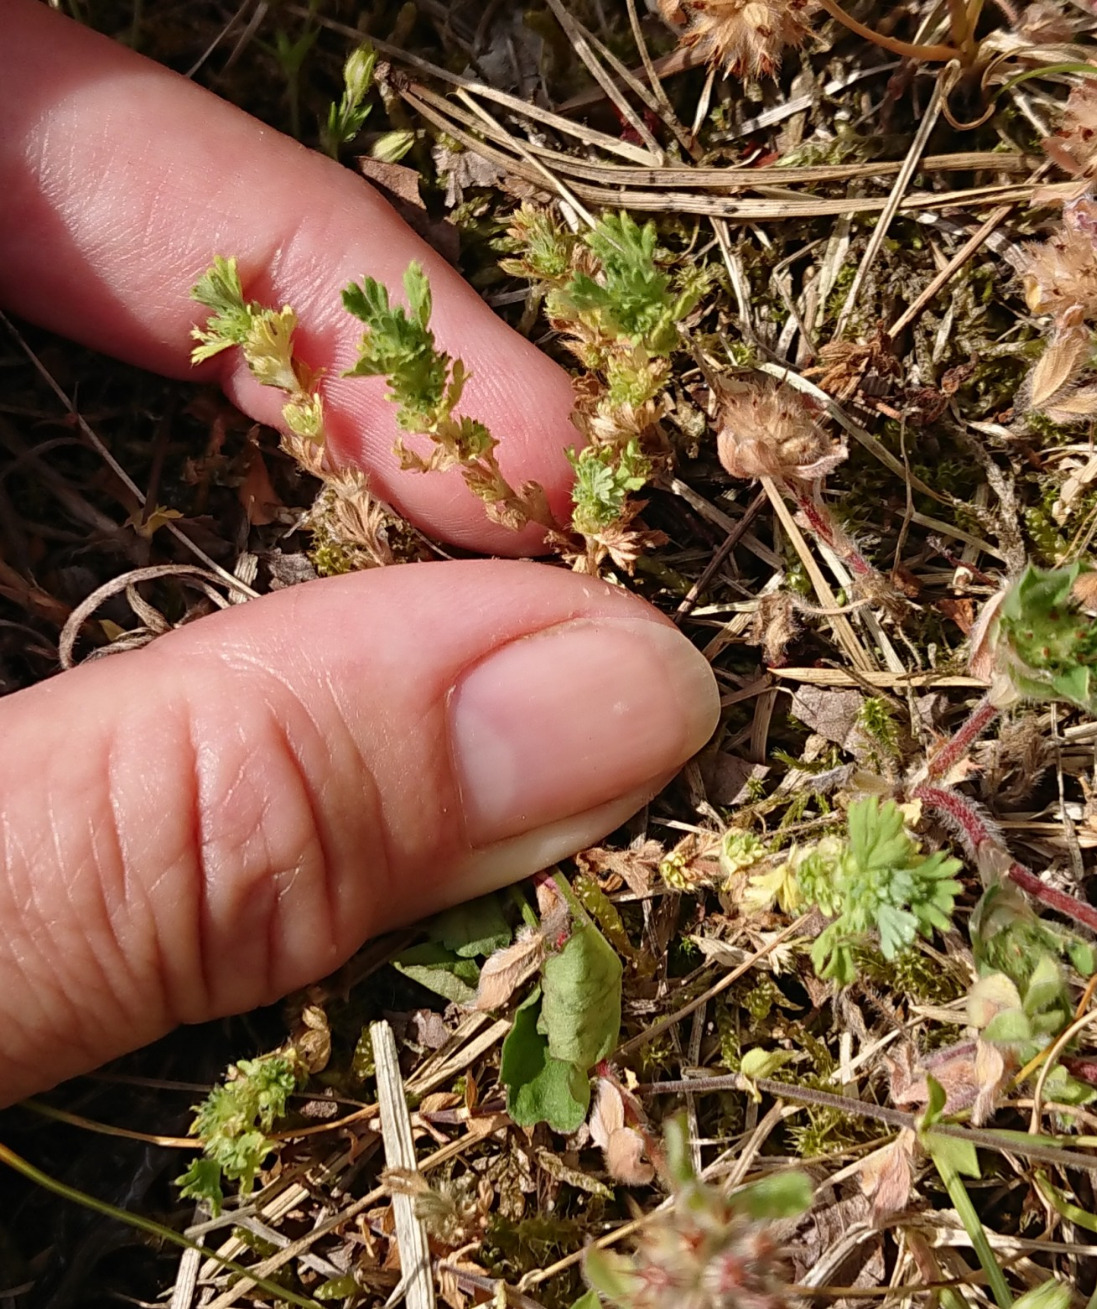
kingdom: Plantae
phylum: Tracheophyta
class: Magnoliopsida
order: Rosales
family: Rosaceae
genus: Aphanes
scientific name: Aphanes australis
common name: Småfrugtet dværgløvefod
